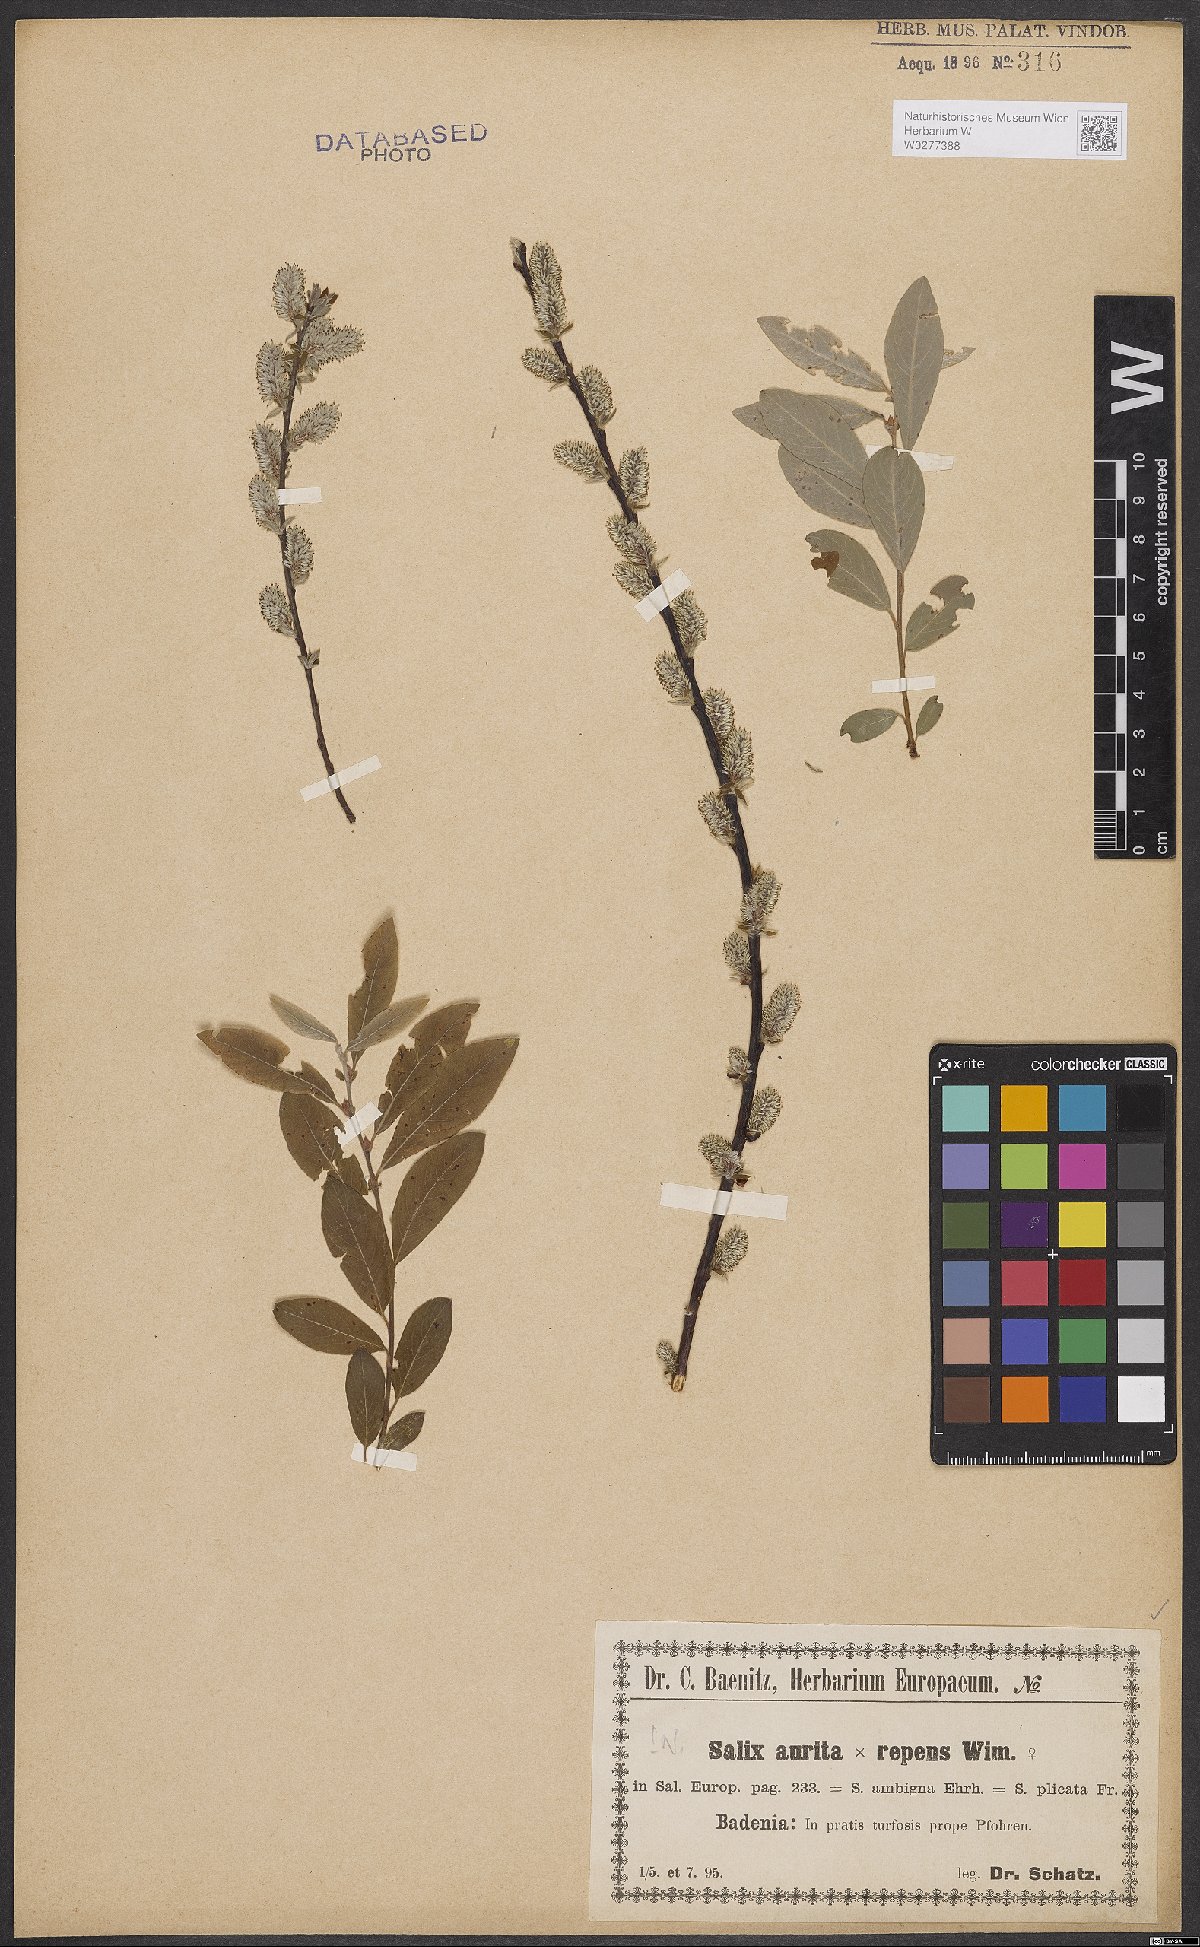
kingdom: Plantae
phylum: Tracheophyta
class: Magnoliopsida
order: Malpighiales
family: Salicaceae
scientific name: Salicaceae
